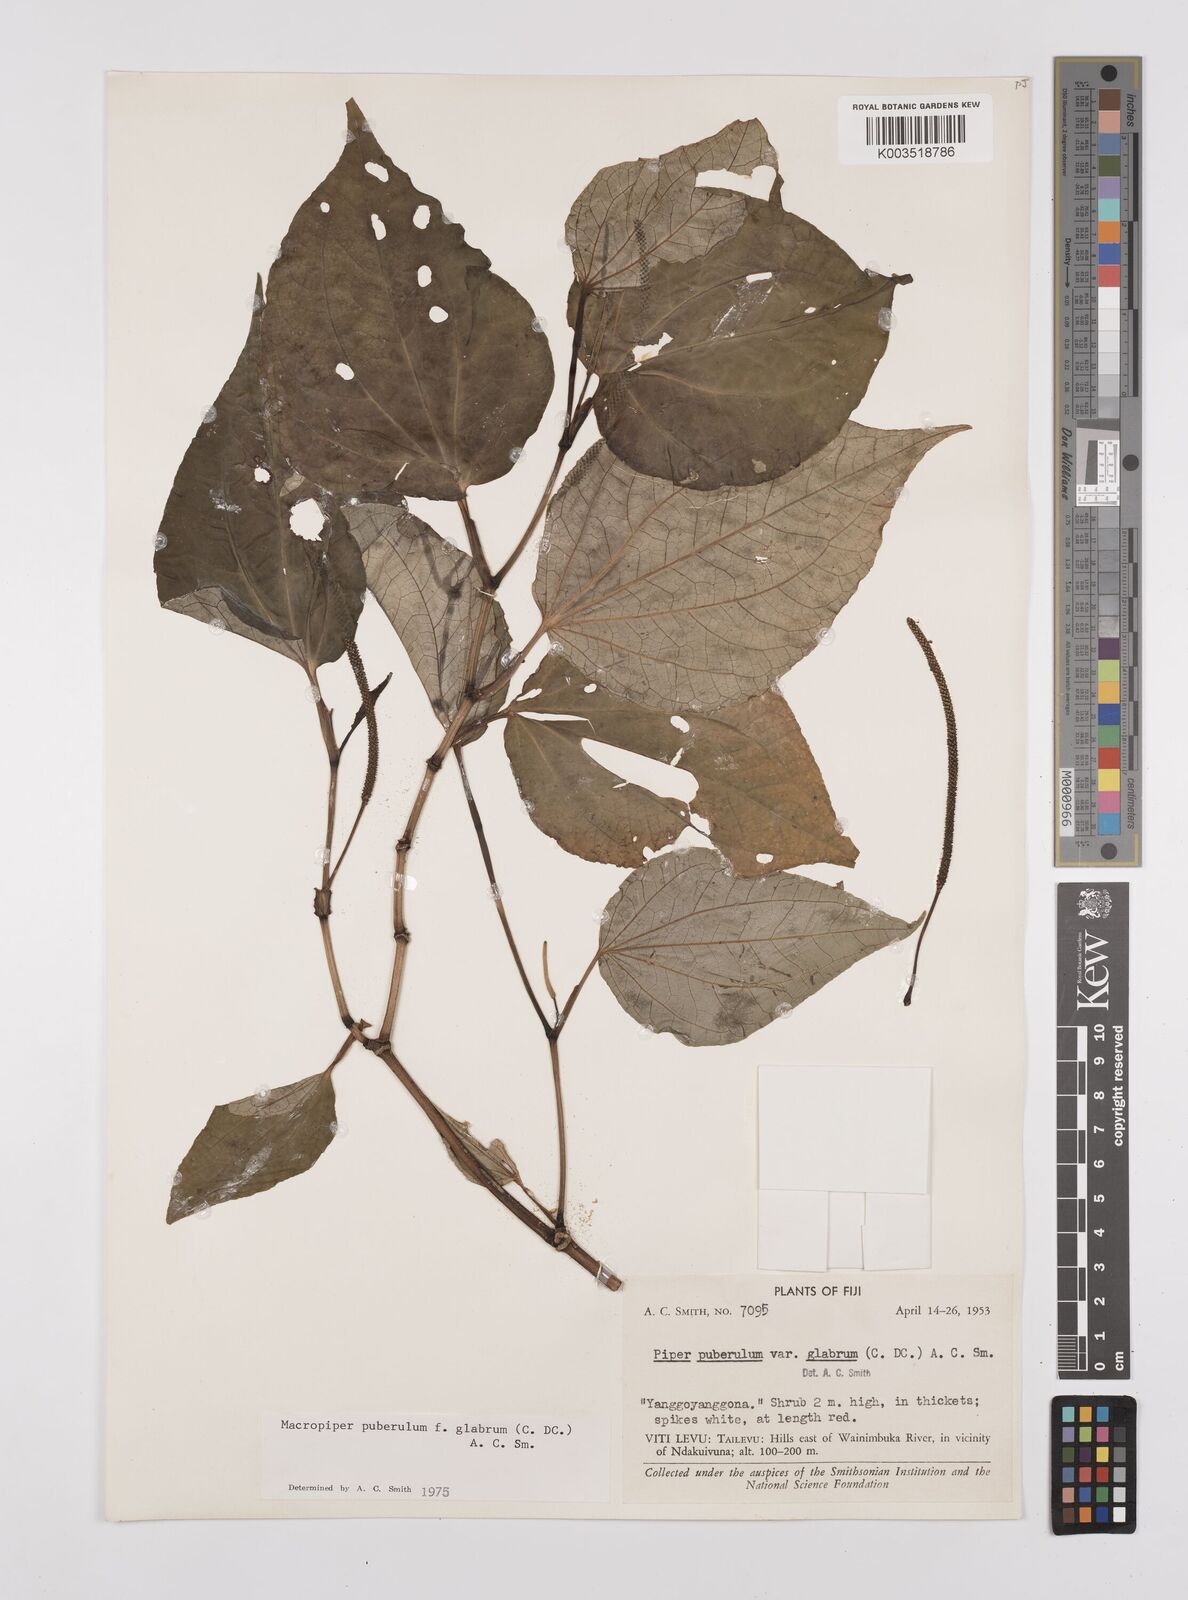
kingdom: Plantae
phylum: Tracheophyta
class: Magnoliopsida
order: Piperales
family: Piperaceae
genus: Macropiper
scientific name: Macropiper puberulum
